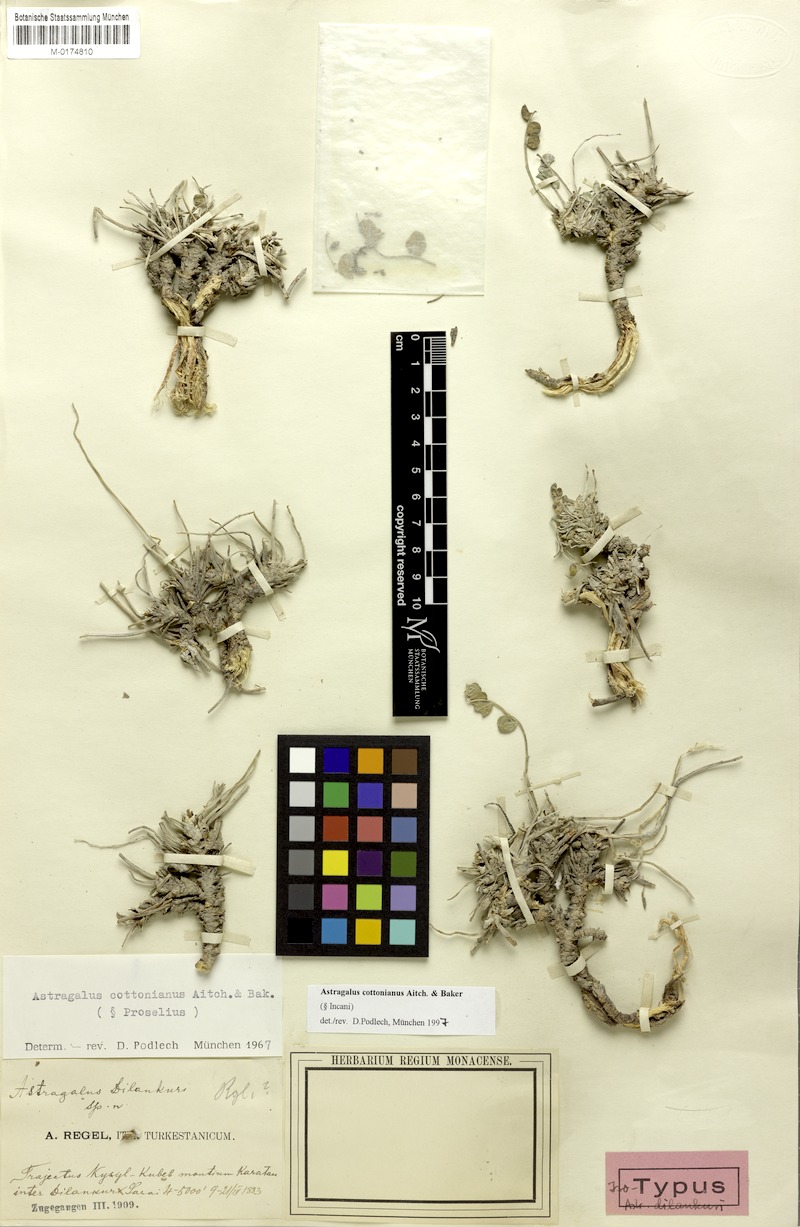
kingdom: Plantae
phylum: Tracheophyta
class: Magnoliopsida
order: Fabales
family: Fabaceae
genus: Astragalus
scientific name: Astragalus cottonianus
